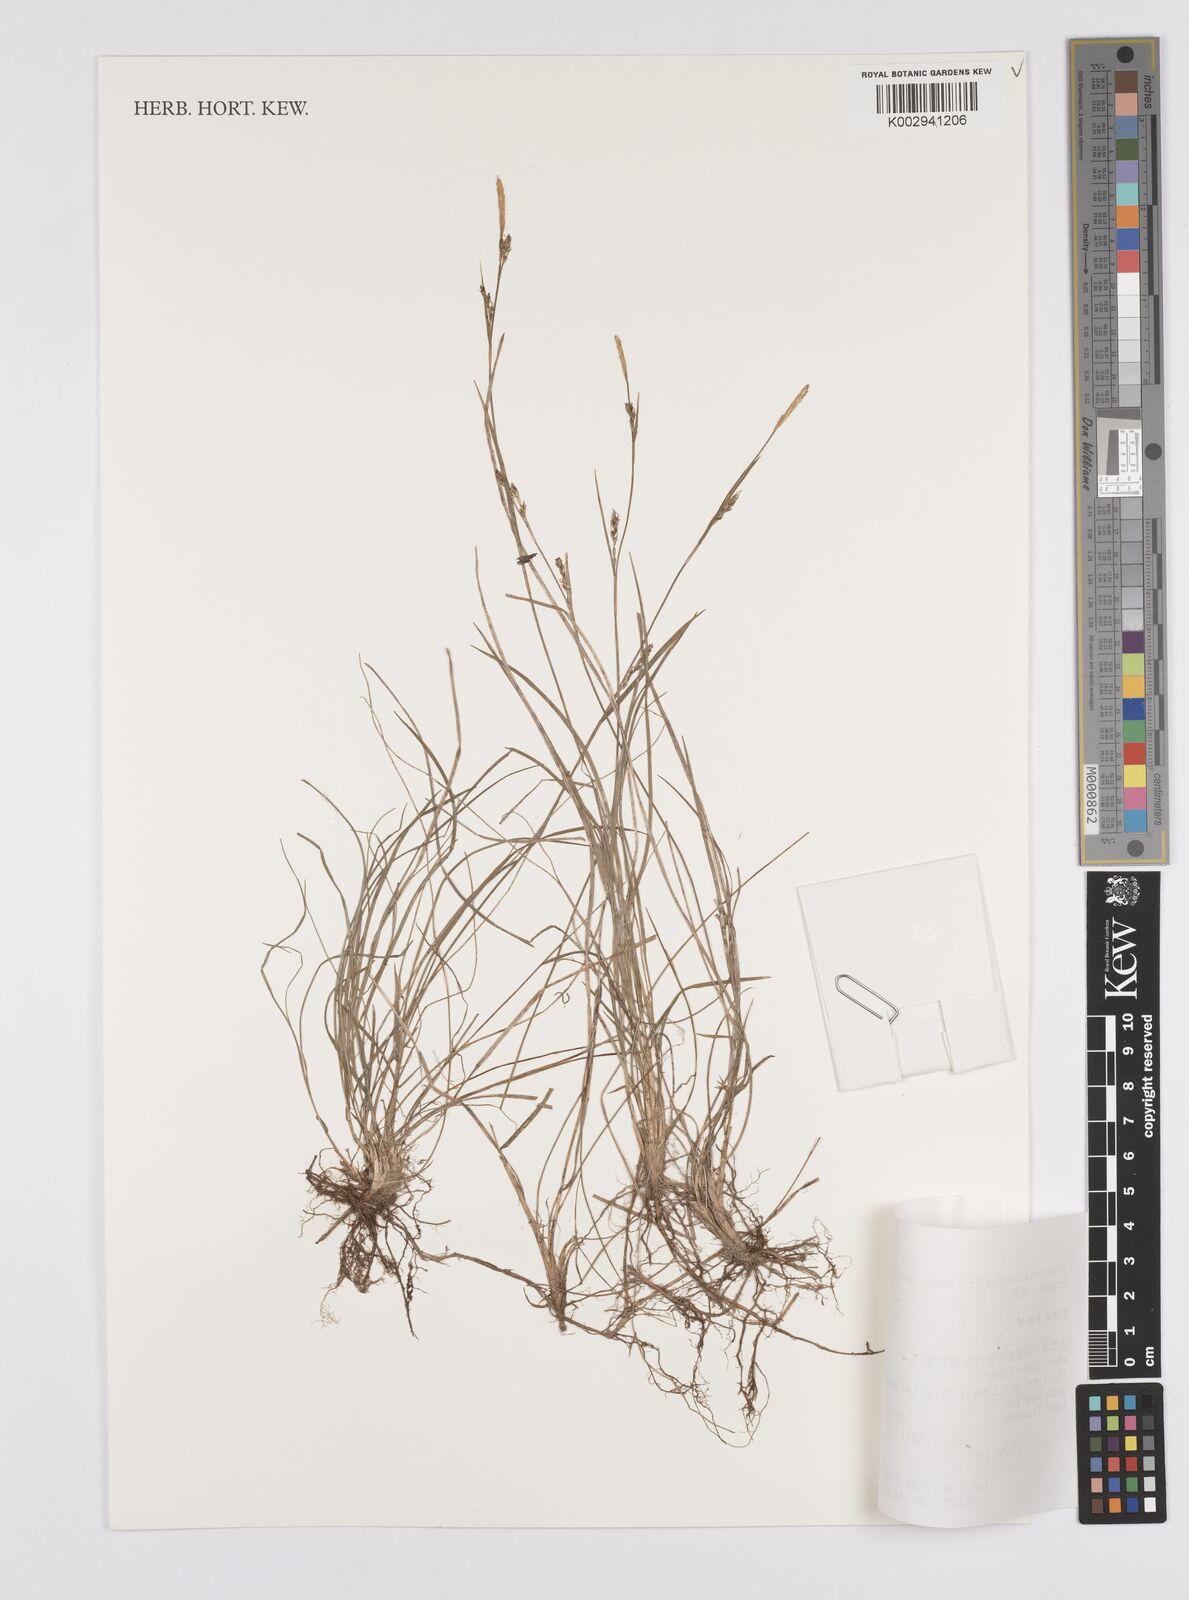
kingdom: Plantae
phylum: Tracheophyta
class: Liliopsida
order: Poales
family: Cyperaceae
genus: Carex
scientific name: Carex pisiformis
